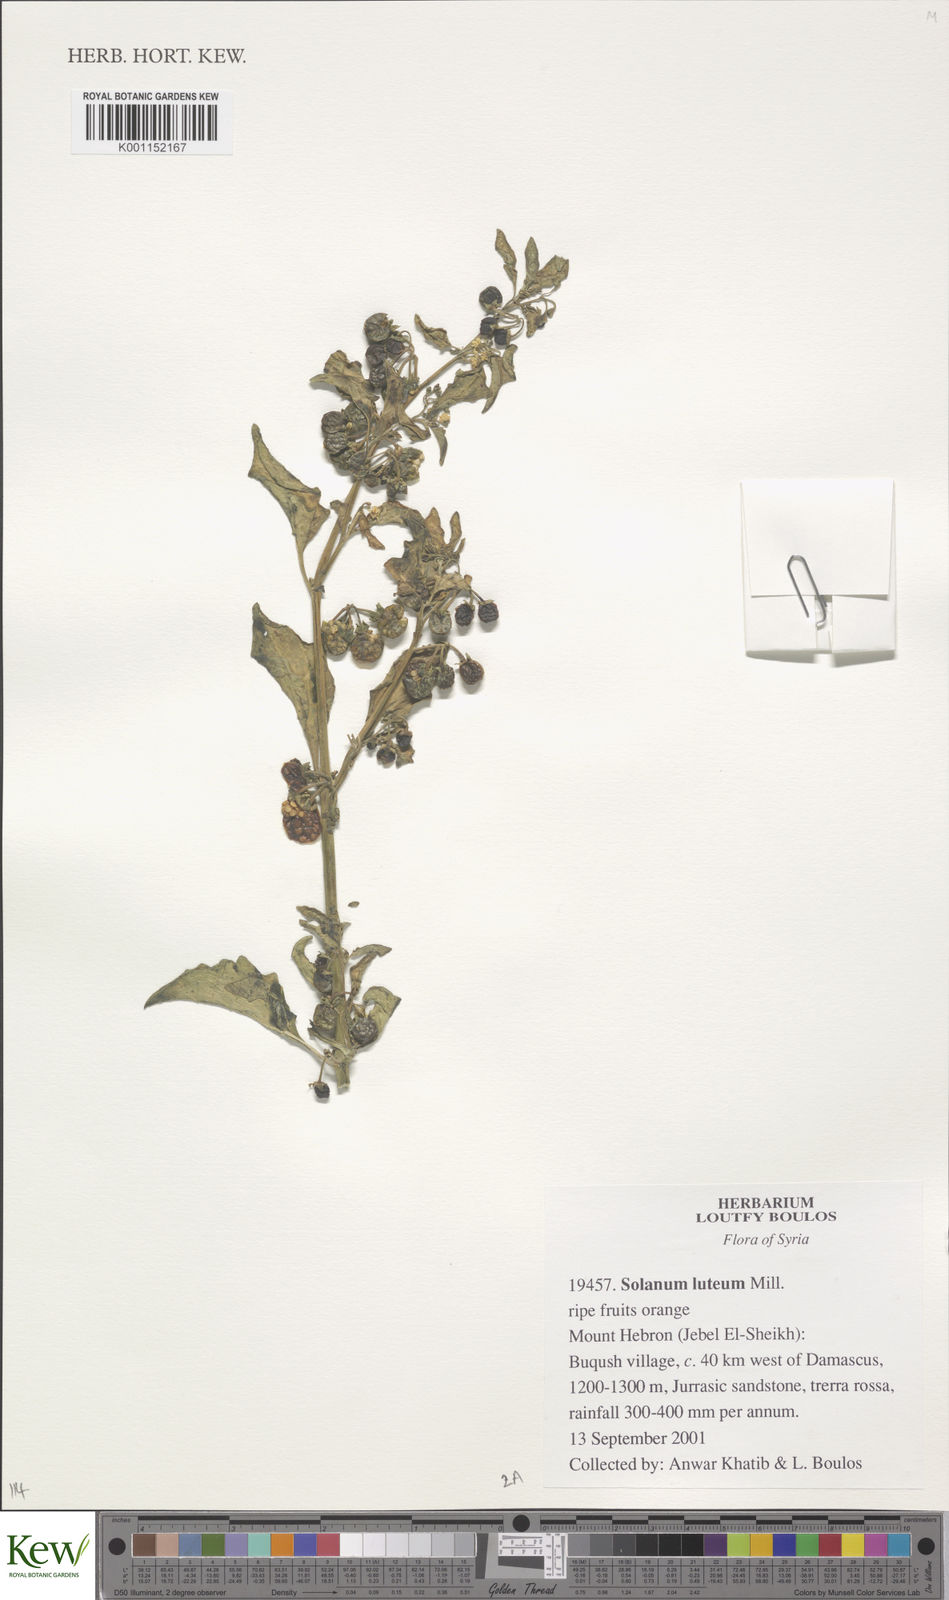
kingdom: Plantae
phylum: Tracheophyta
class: Magnoliopsida
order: Solanales
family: Solanaceae
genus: Solanum
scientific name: Solanum villosum
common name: Red nightshade
